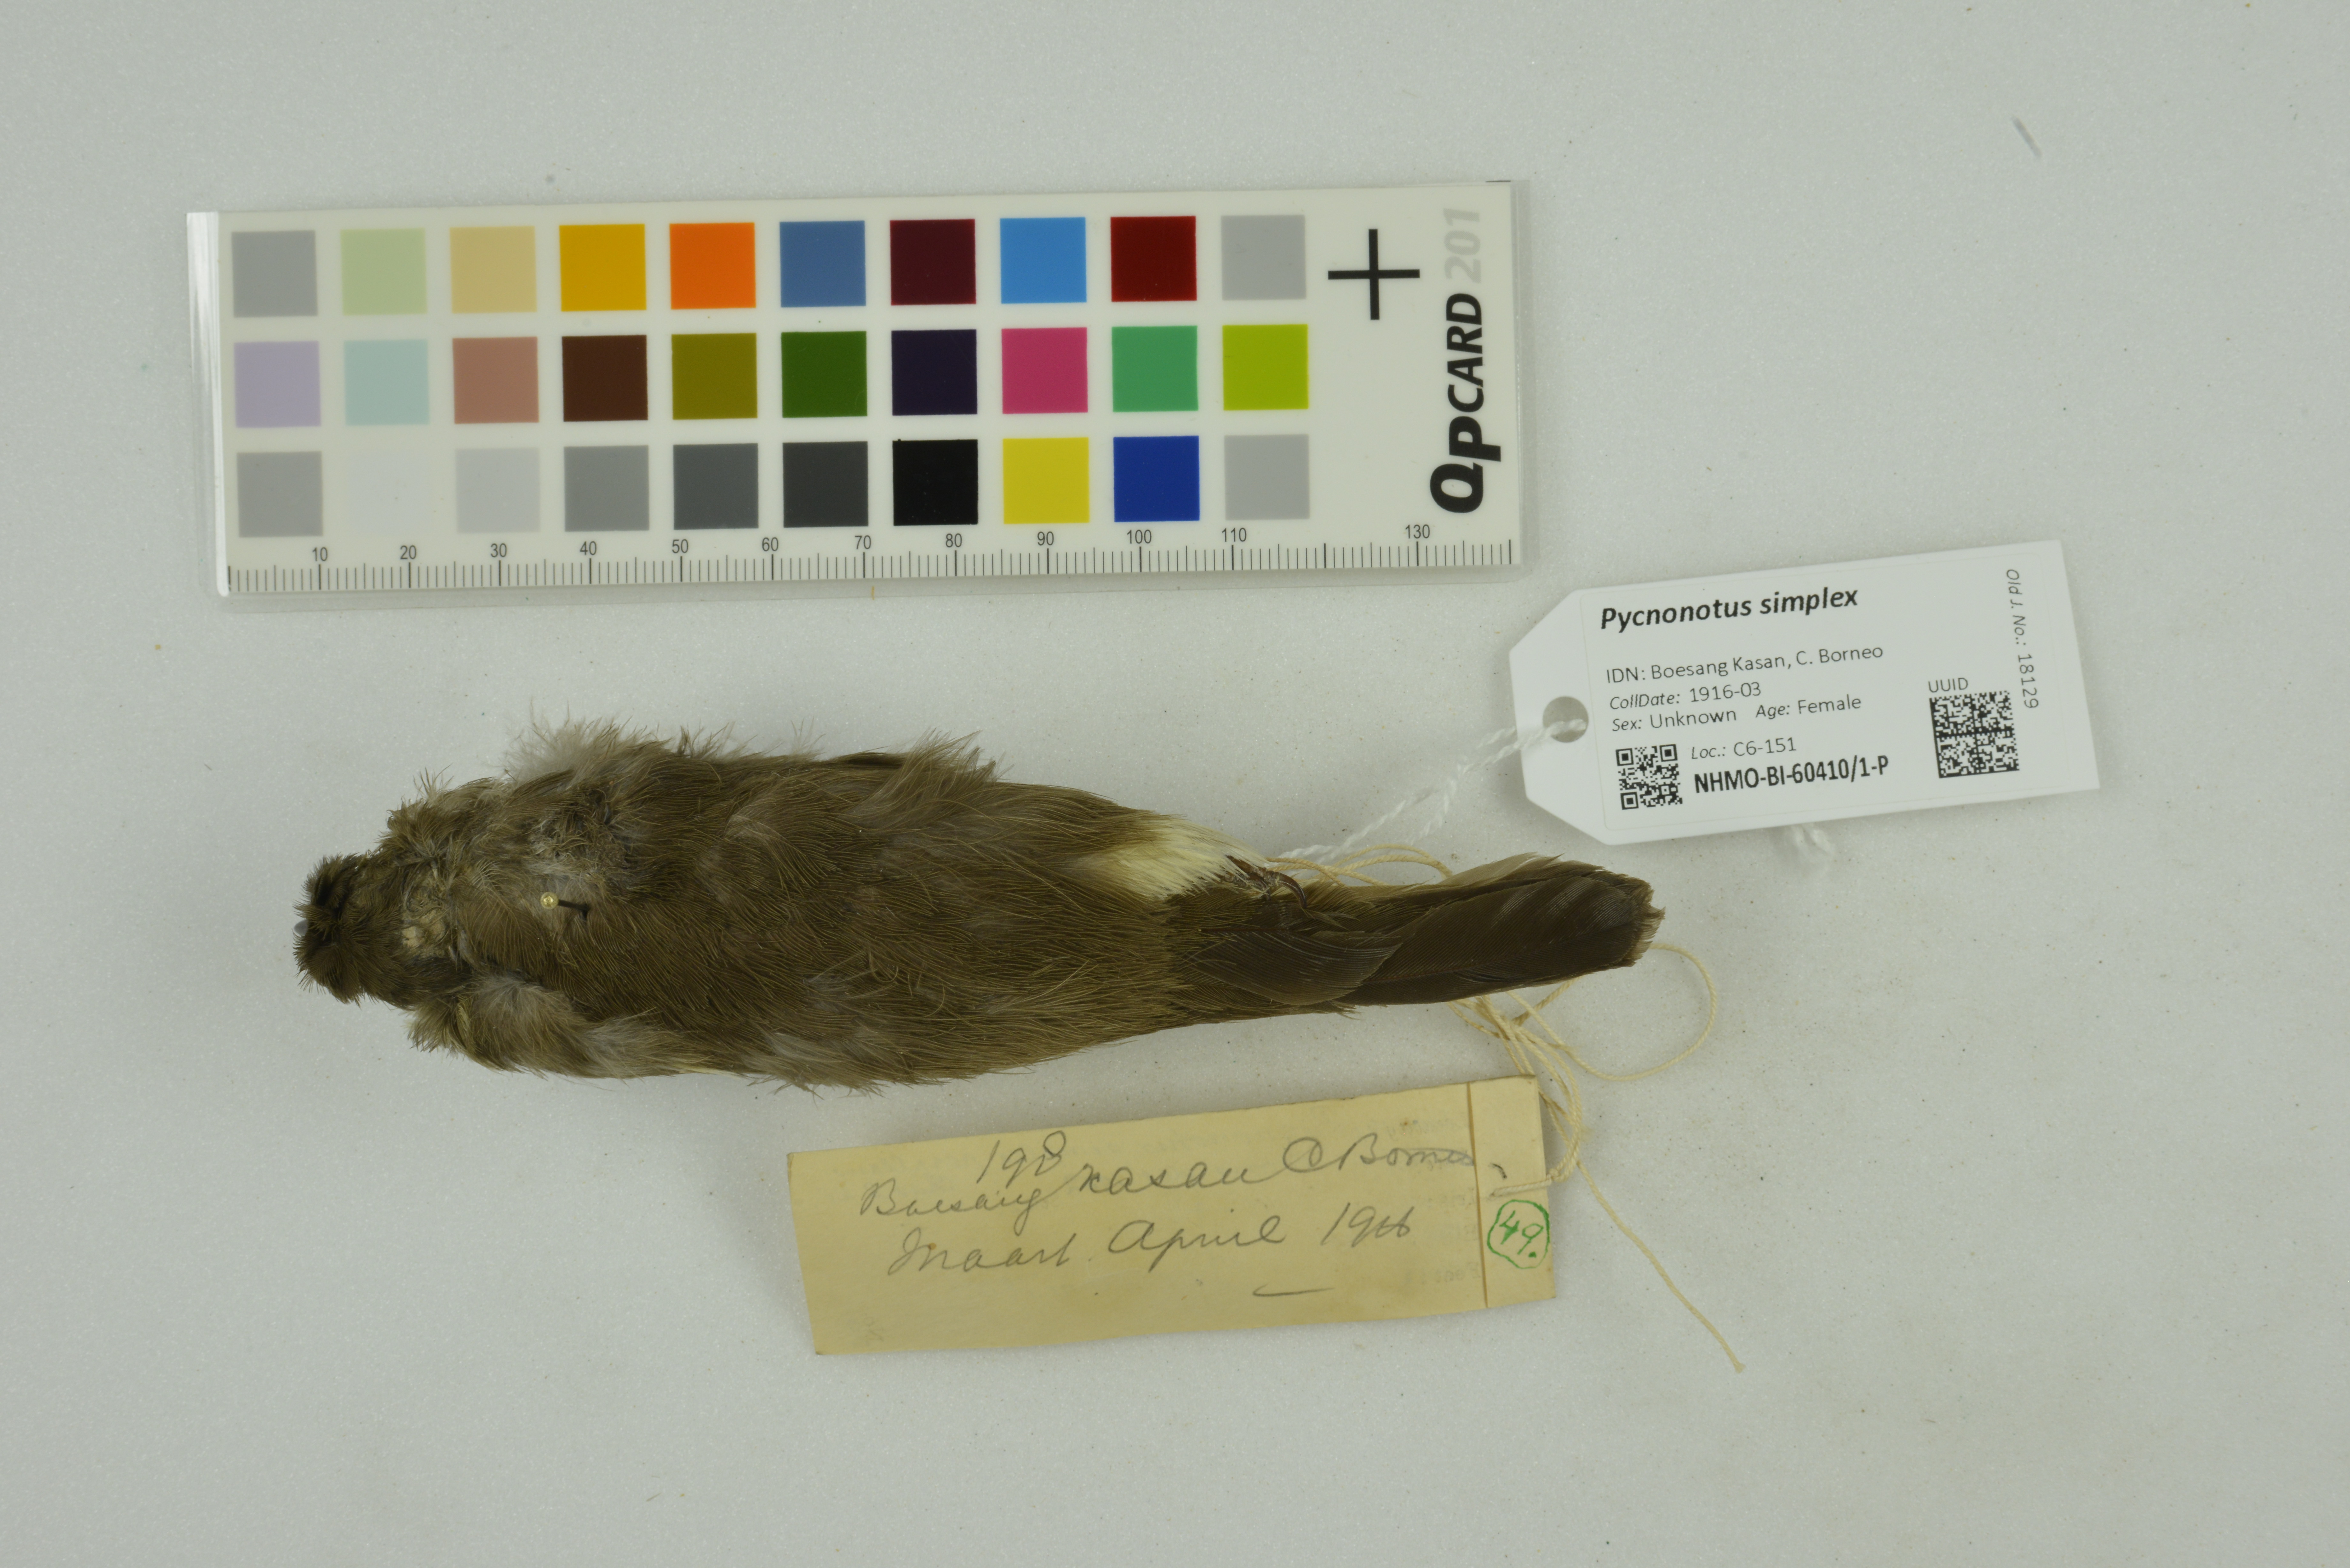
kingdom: Animalia
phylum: Chordata
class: Aves
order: Passeriformes
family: Pycnonotidae
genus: Pycnonotus
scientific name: Pycnonotus simplex
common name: Cream-vented bulbul
